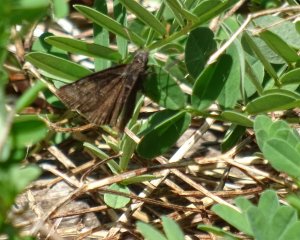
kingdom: Animalia
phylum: Arthropoda
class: Insecta
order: Lepidoptera
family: Hesperiidae
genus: Erynnis
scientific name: Erynnis
